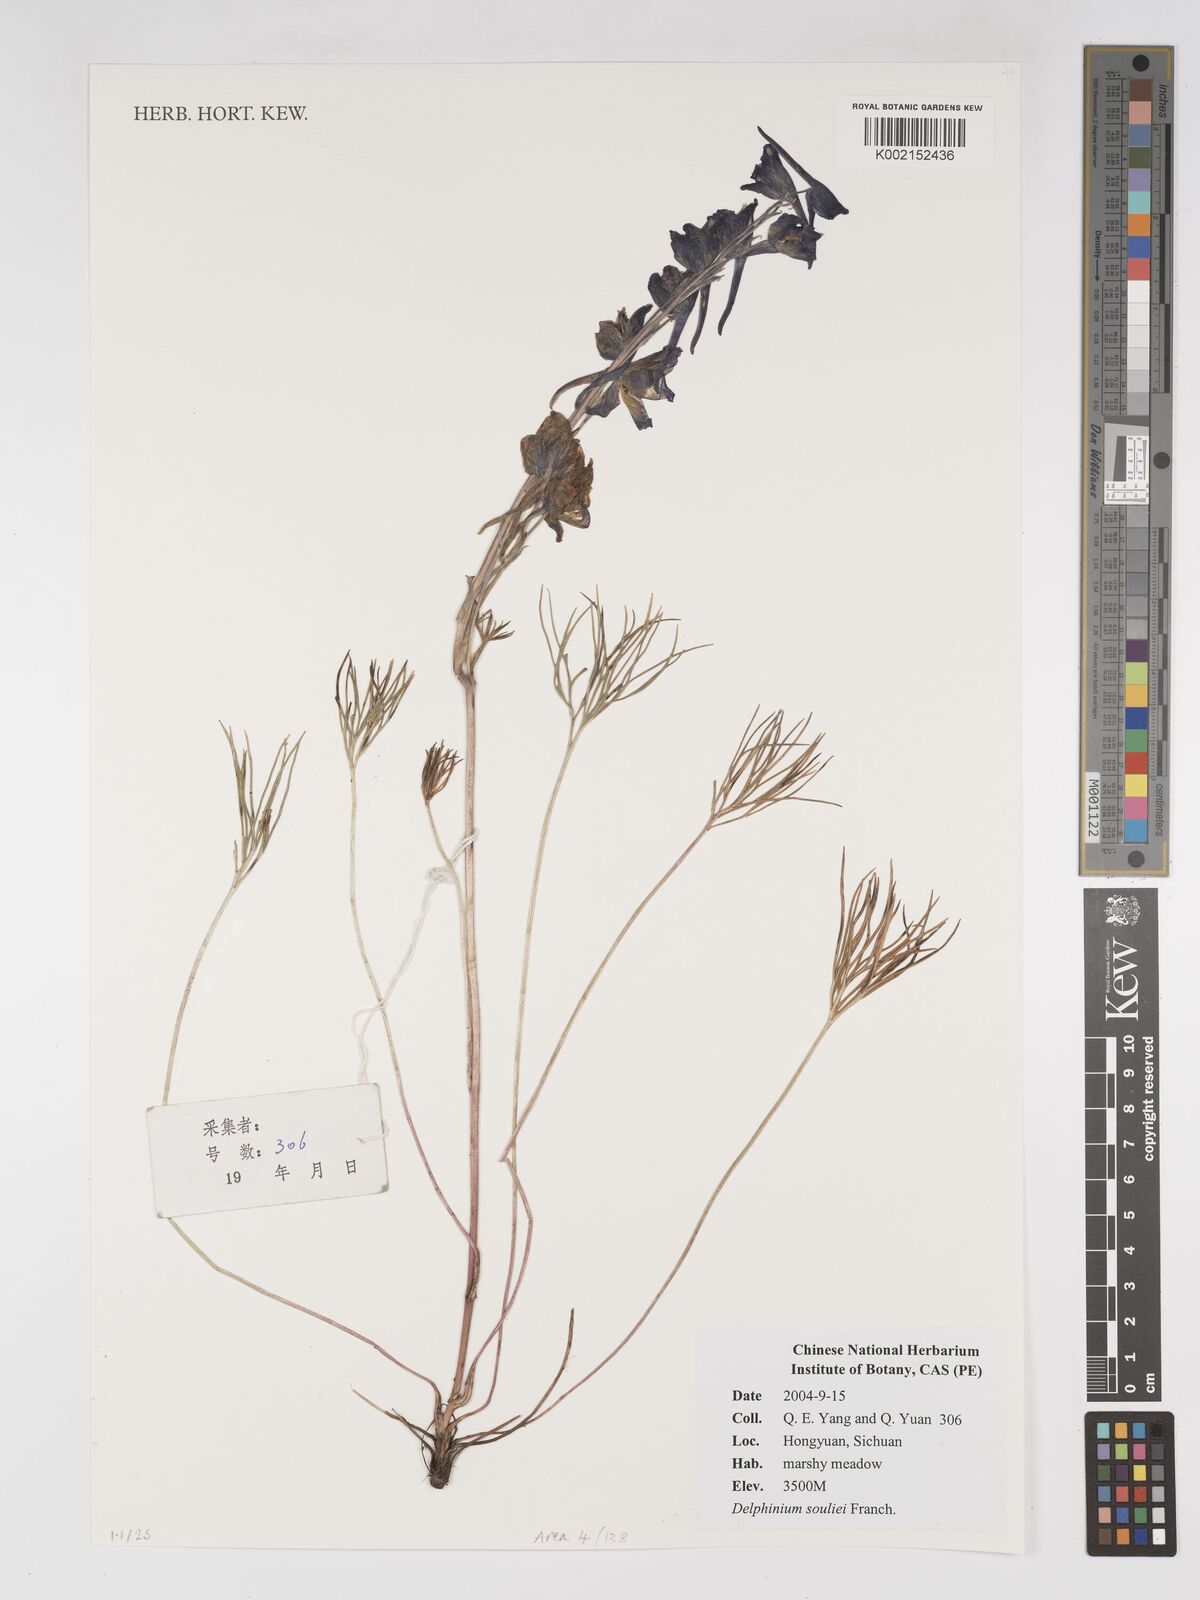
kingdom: Plantae
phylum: Tracheophyta
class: Magnoliopsida
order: Ranunculales
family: Ranunculaceae
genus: Delphinium
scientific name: Delphinium souliei
